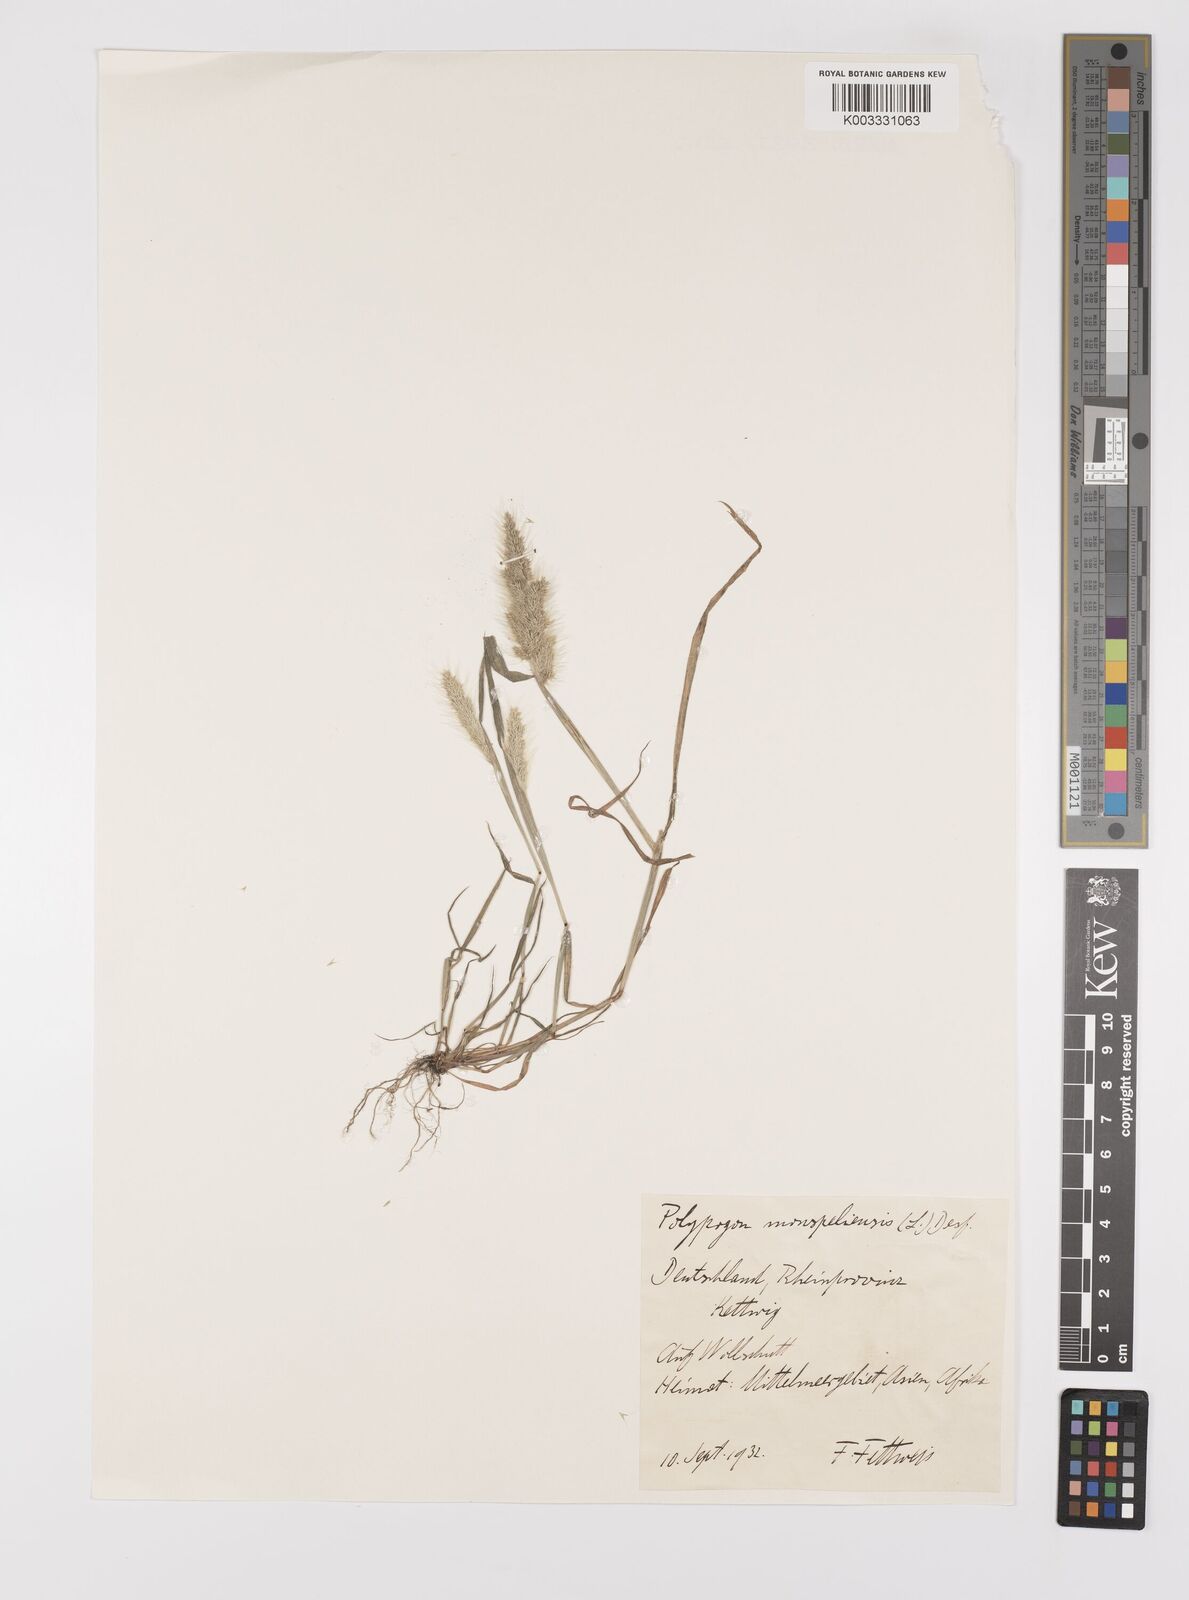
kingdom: Plantae
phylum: Tracheophyta
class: Liliopsida
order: Poales
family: Poaceae
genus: Polypogon
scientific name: Polypogon monspeliensis
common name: Annual rabbitsfoot grass
